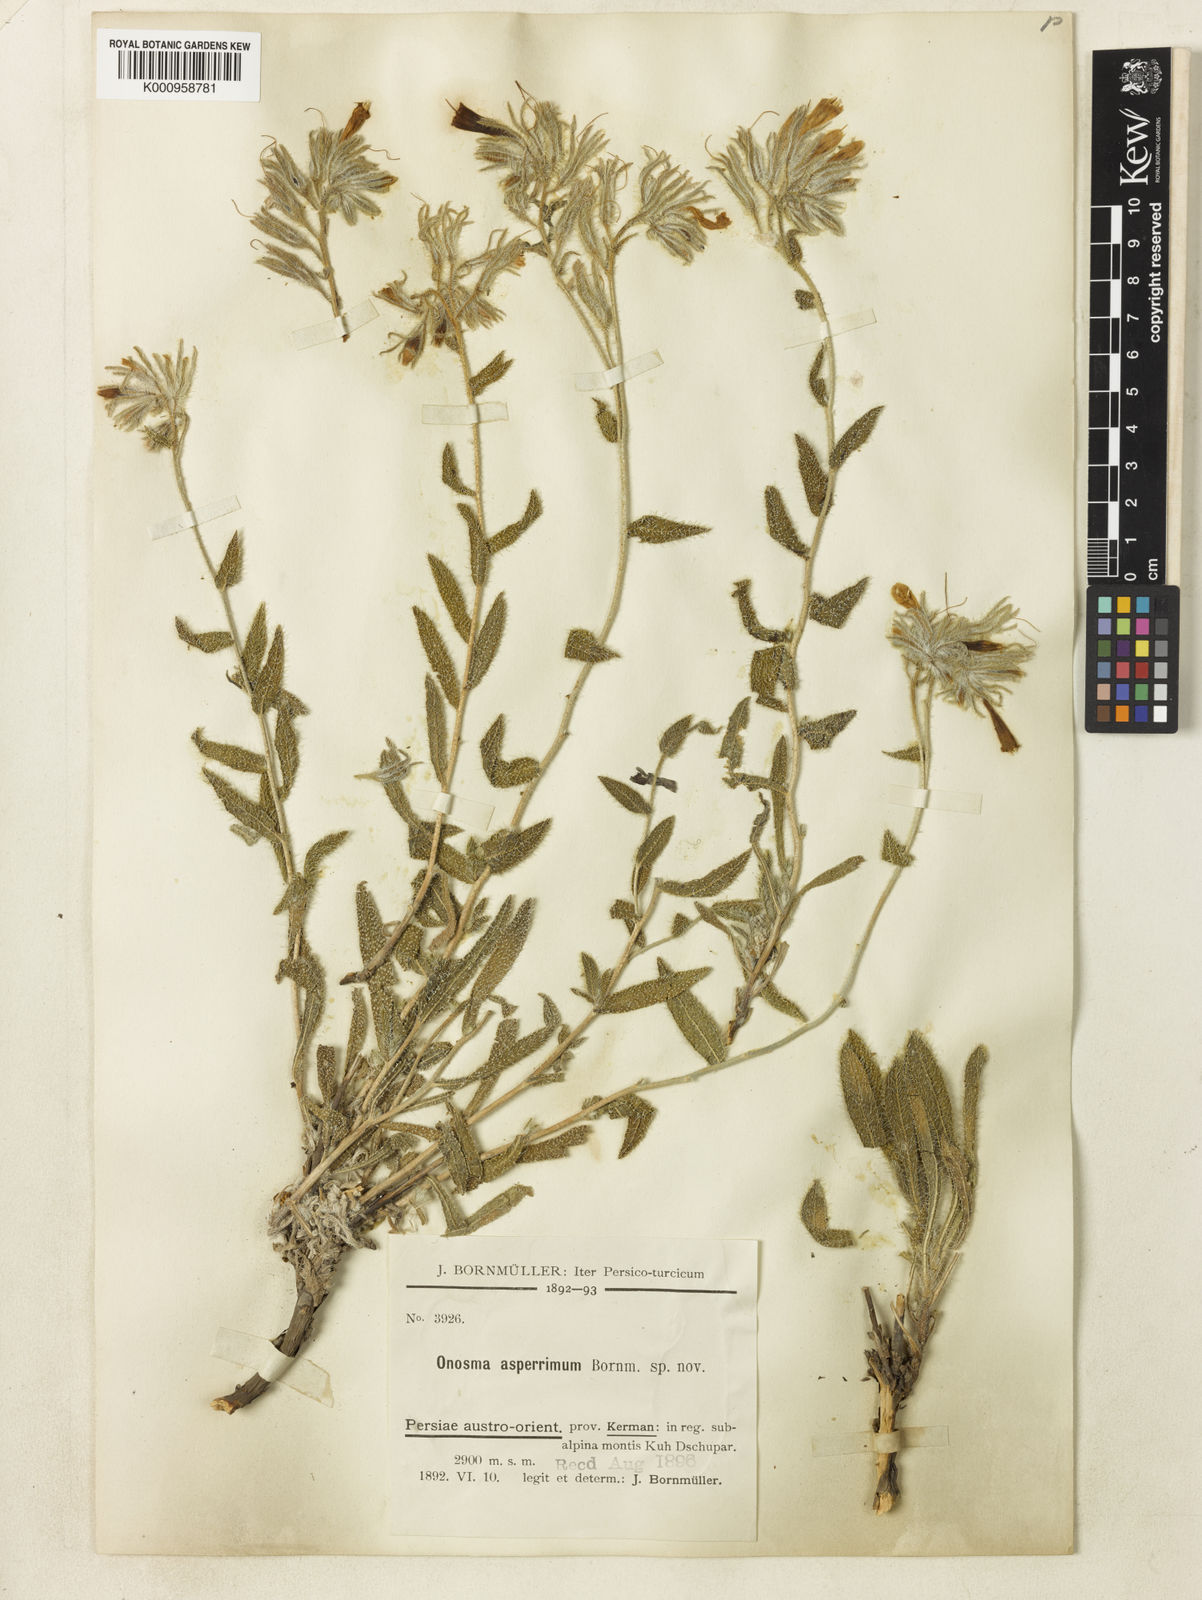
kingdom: Plantae
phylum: Tracheophyta
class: Magnoliopsida
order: Boraginales
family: Boraginaceae
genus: Onosma
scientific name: Onosma asperrima
